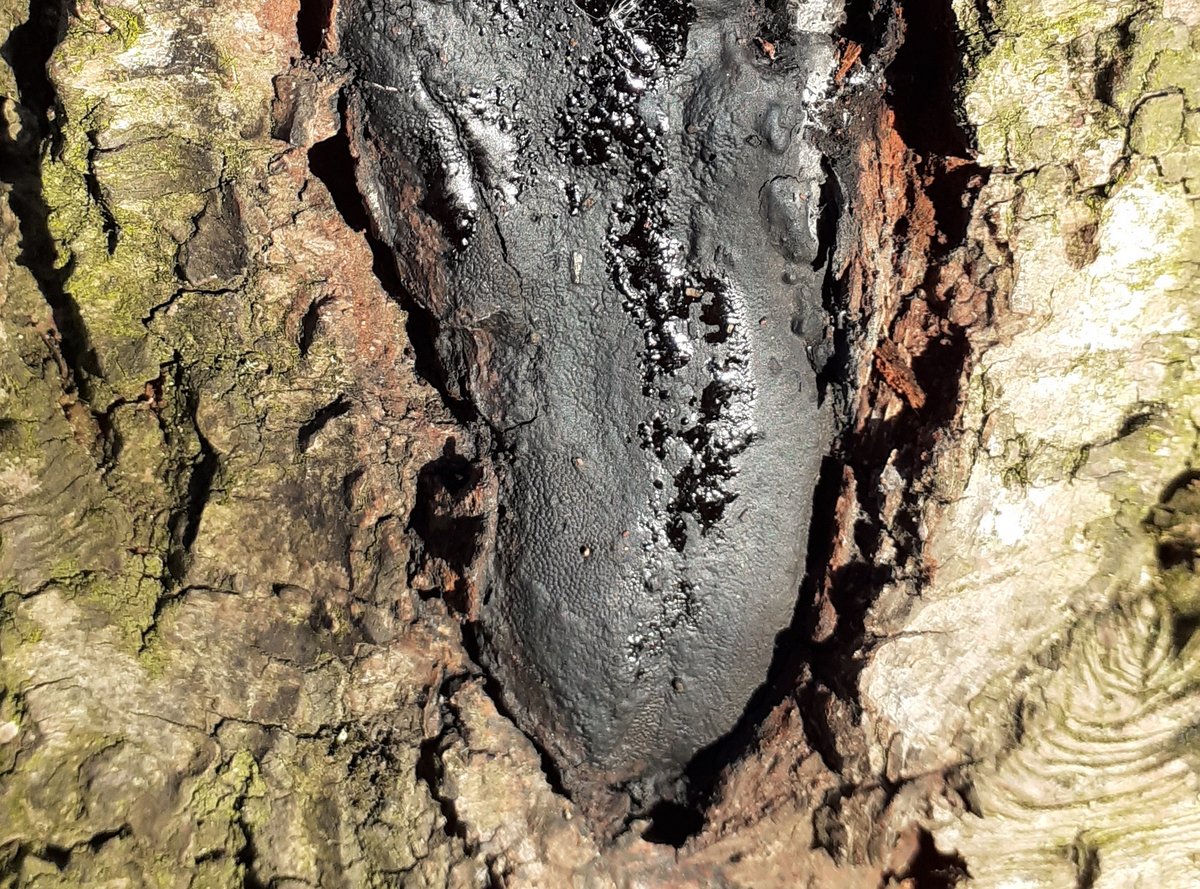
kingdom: Fungi
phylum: Ascomycota
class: Sordariomycetes
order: Boliniales
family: Boliniaceae
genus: Camarops
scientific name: Camarops polysperma
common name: elle-kulsnegl
